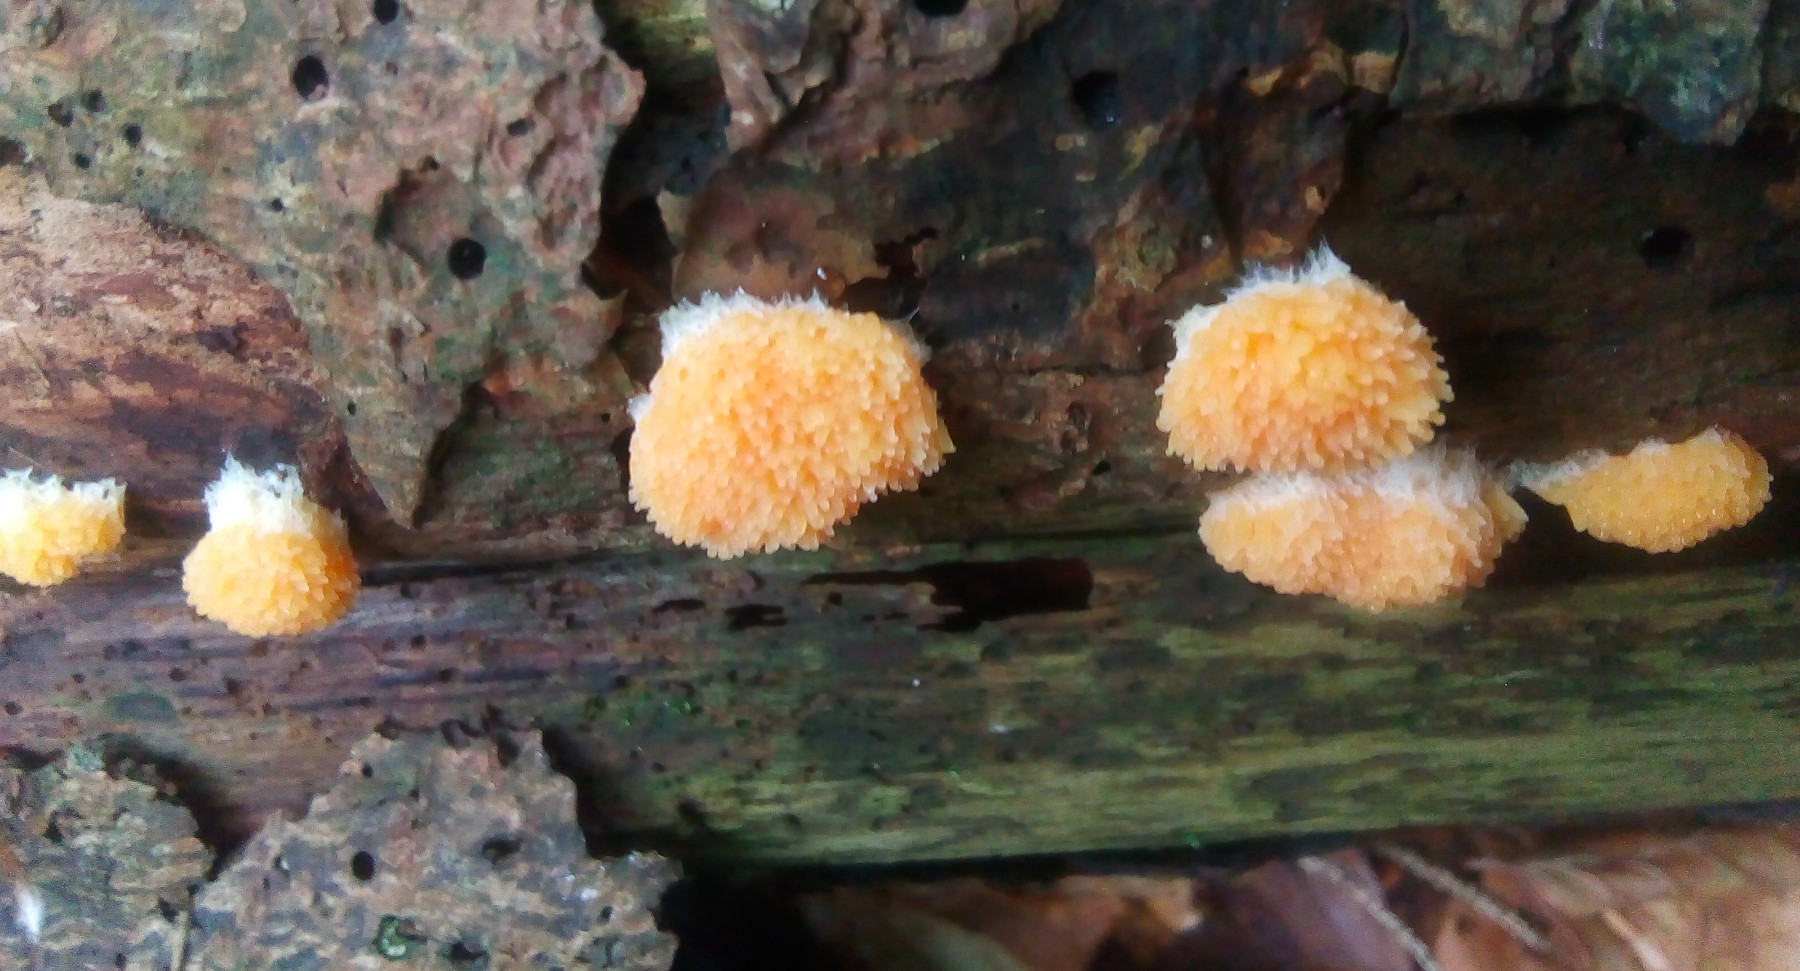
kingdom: Protozoa
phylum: Mycetozoa
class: Myxomycetes
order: Cribrariales
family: Tubiferaceae
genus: Tubifera
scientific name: Tubifera ferruginosa
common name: kanel-støvrør
